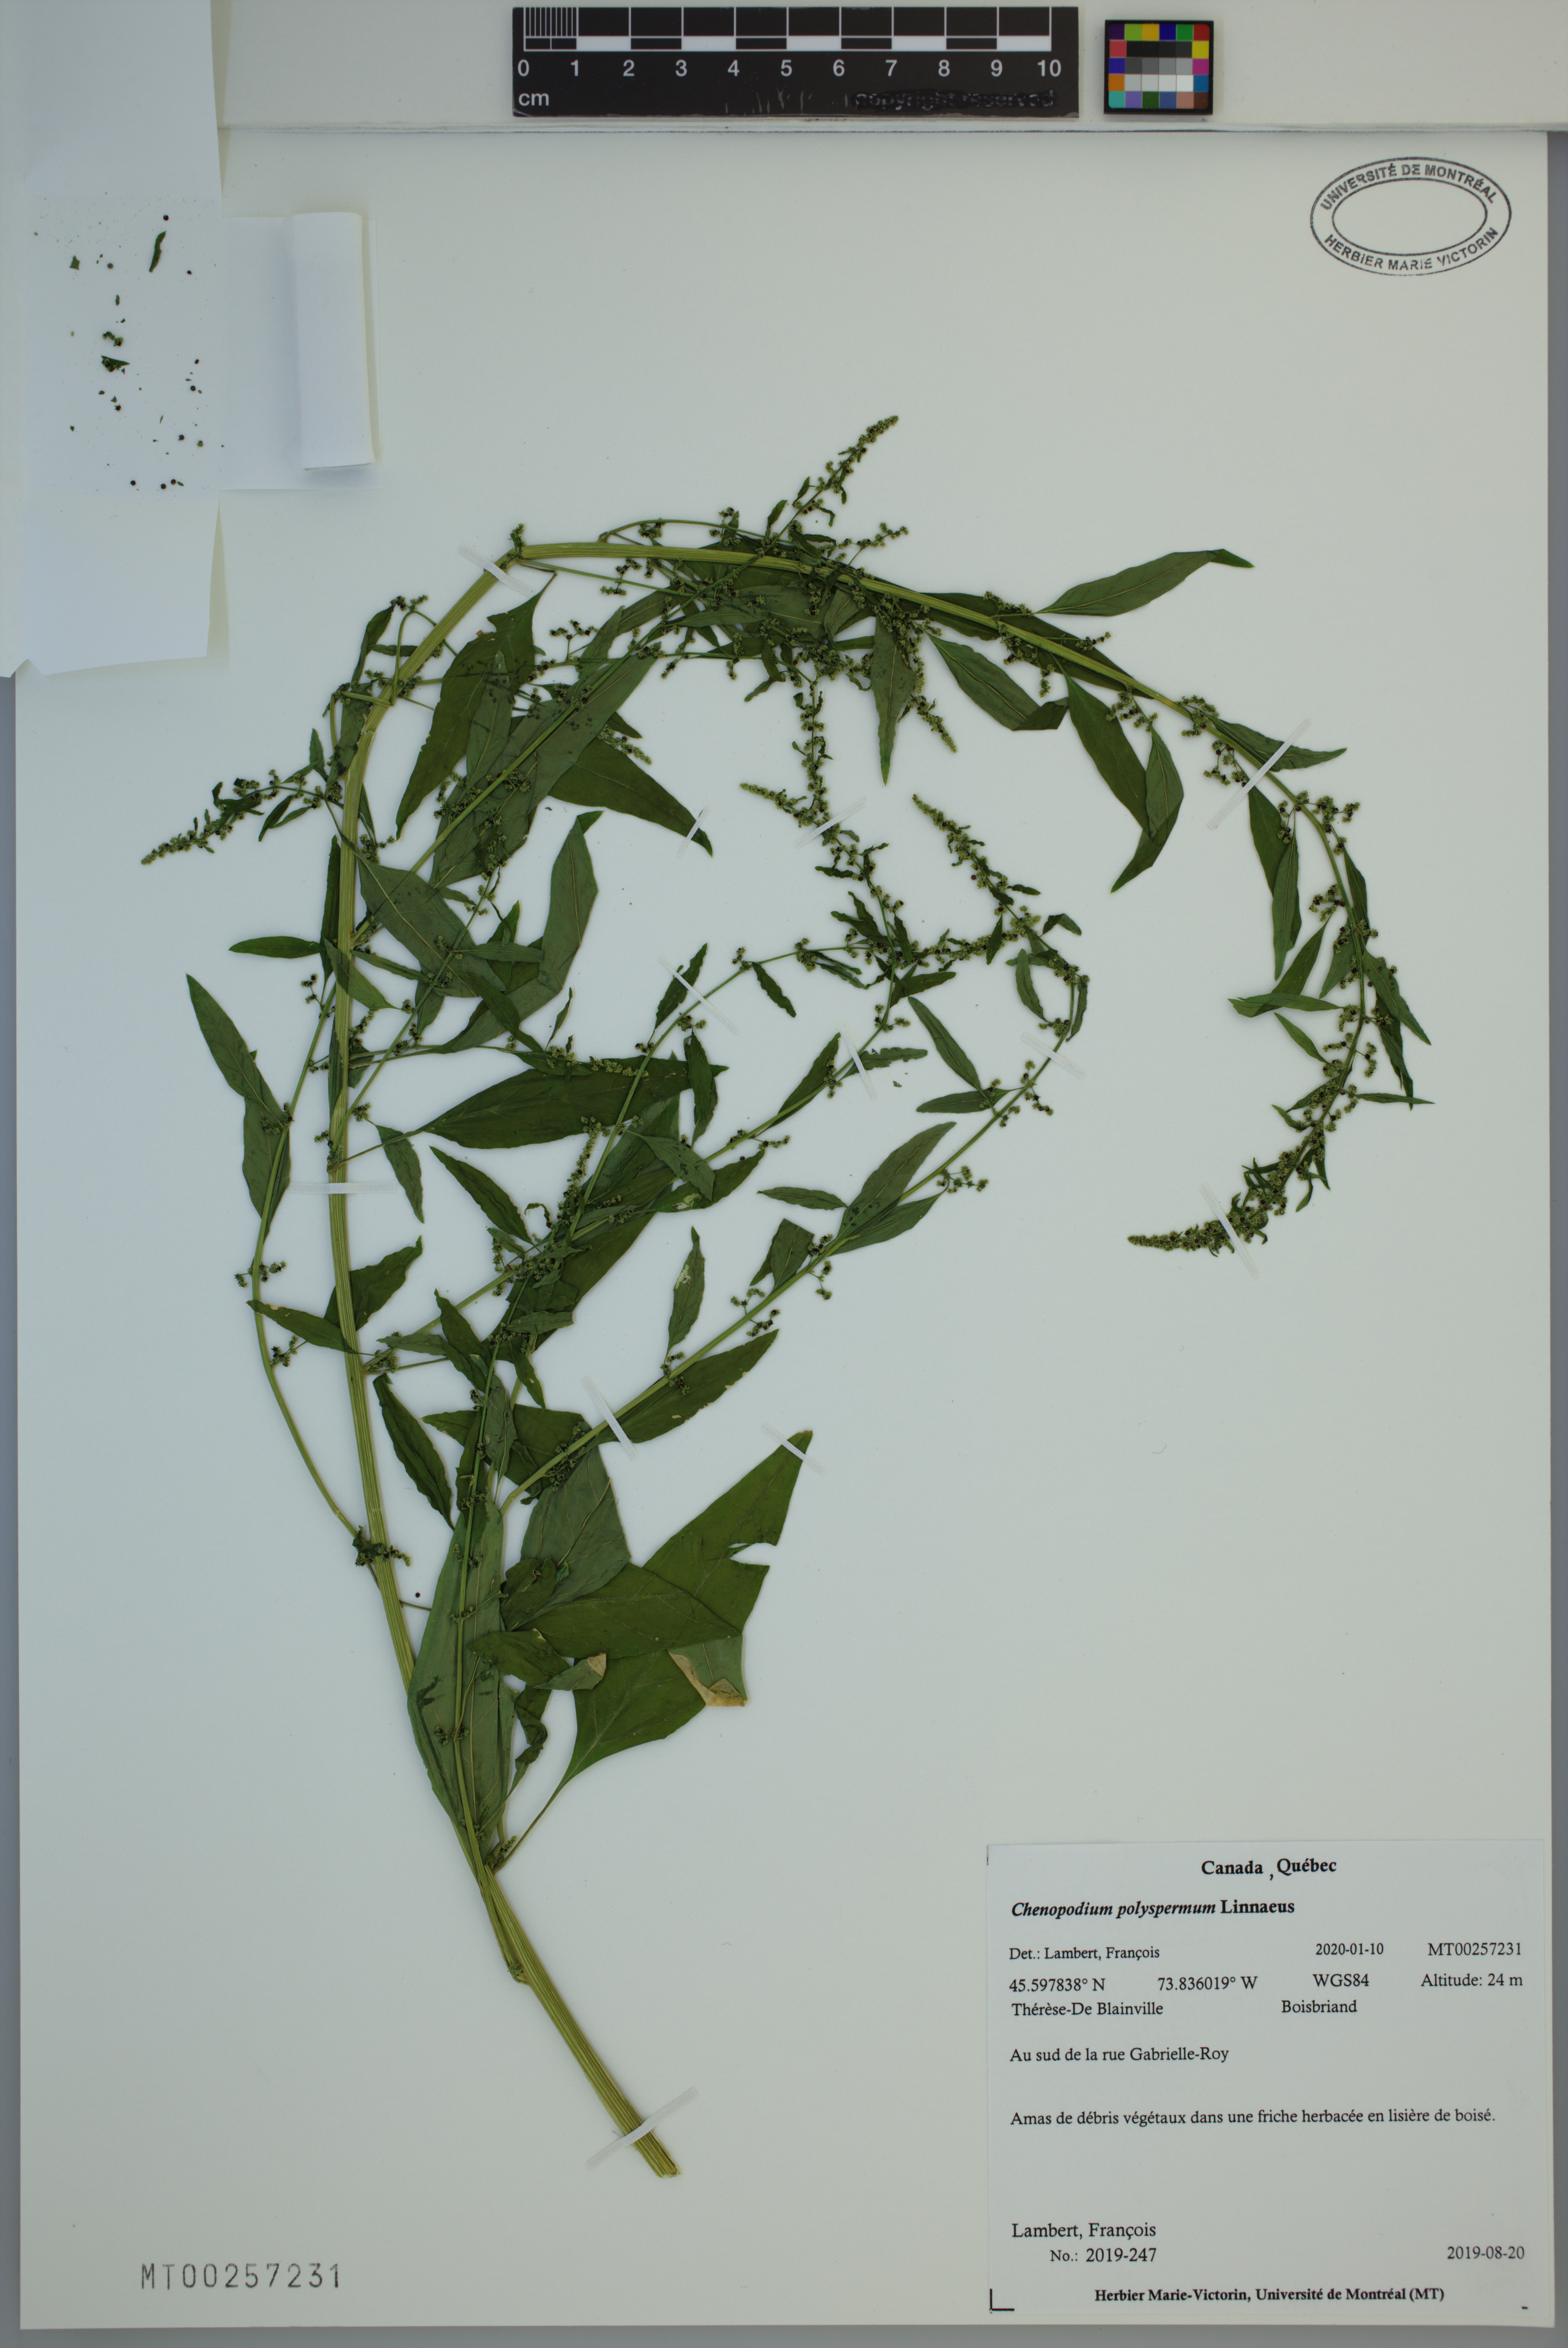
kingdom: Plantae
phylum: Tracheophyta
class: Magnoliopsida
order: Caryophyllales
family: Amaranthaceae
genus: Lipandra
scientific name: Lipandra polysperma
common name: Many-seed goosefoot
